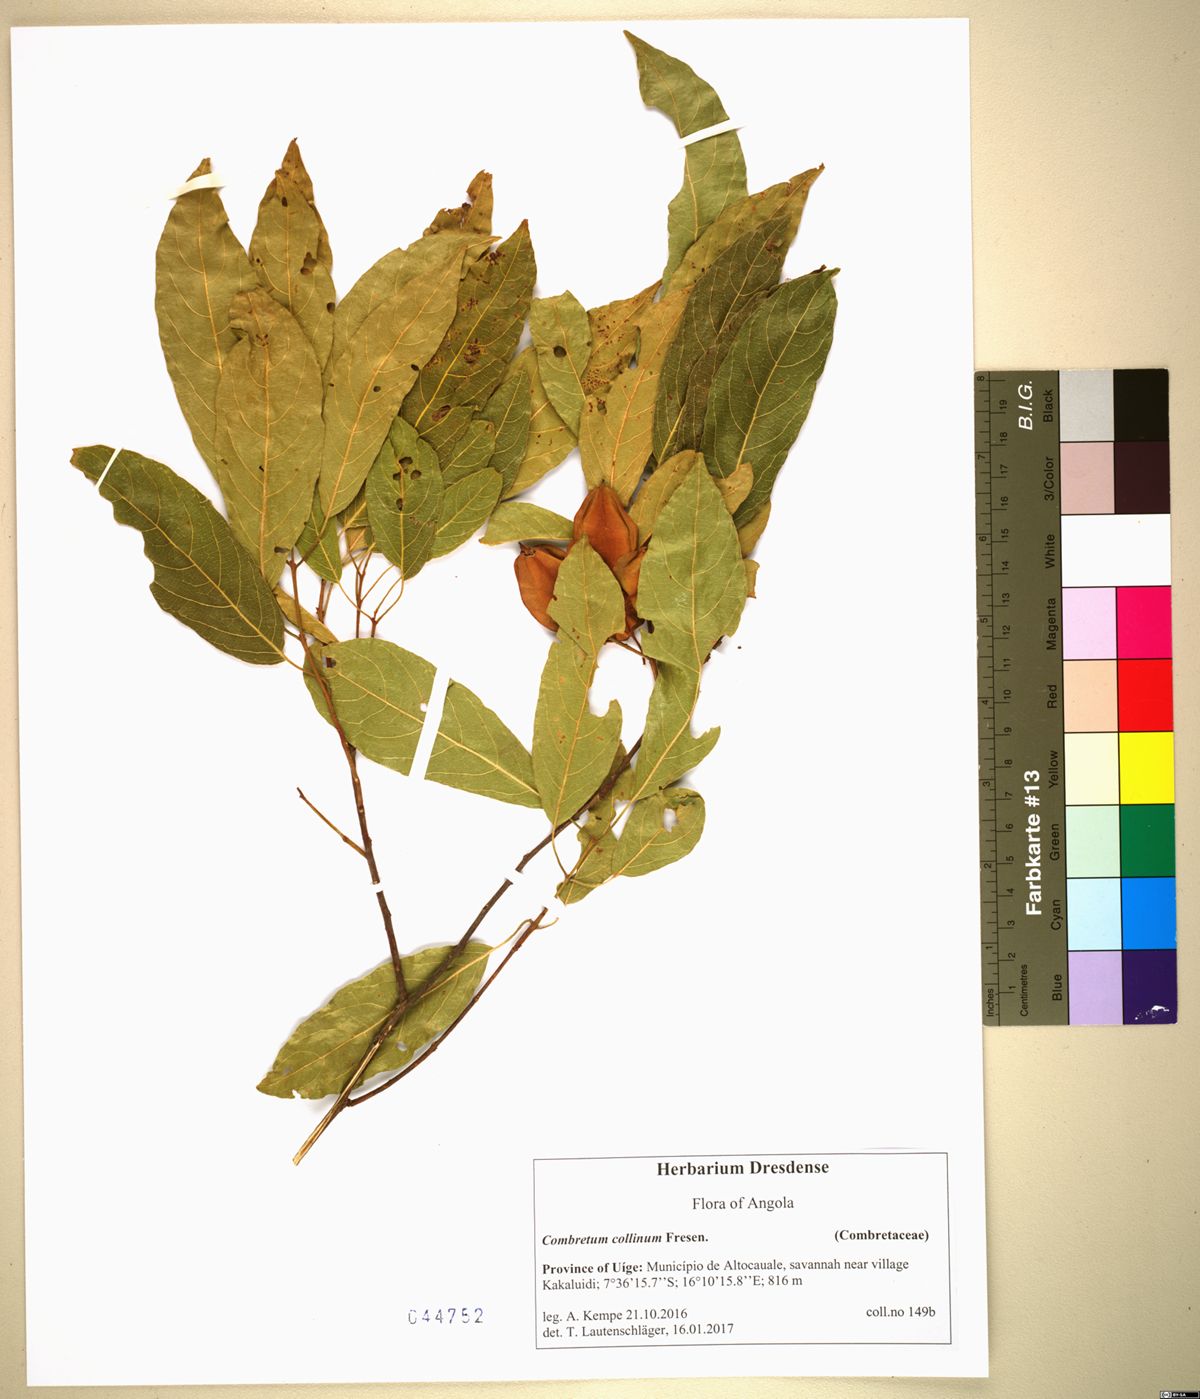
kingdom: Plantae
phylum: Tracheophyta
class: Magnoliopsida
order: Myrtales
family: Combretaceae
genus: Combretum
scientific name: Combretum collinum
